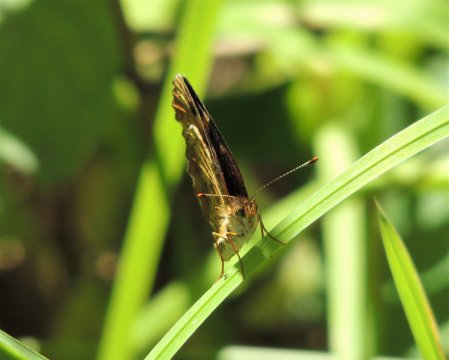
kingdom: Animalia
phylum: Arthropoda
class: Insecta
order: Lepidoptera
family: Nymphalidae
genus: Eresia
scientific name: Eresia aveyrona
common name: Mylitta Crescent
